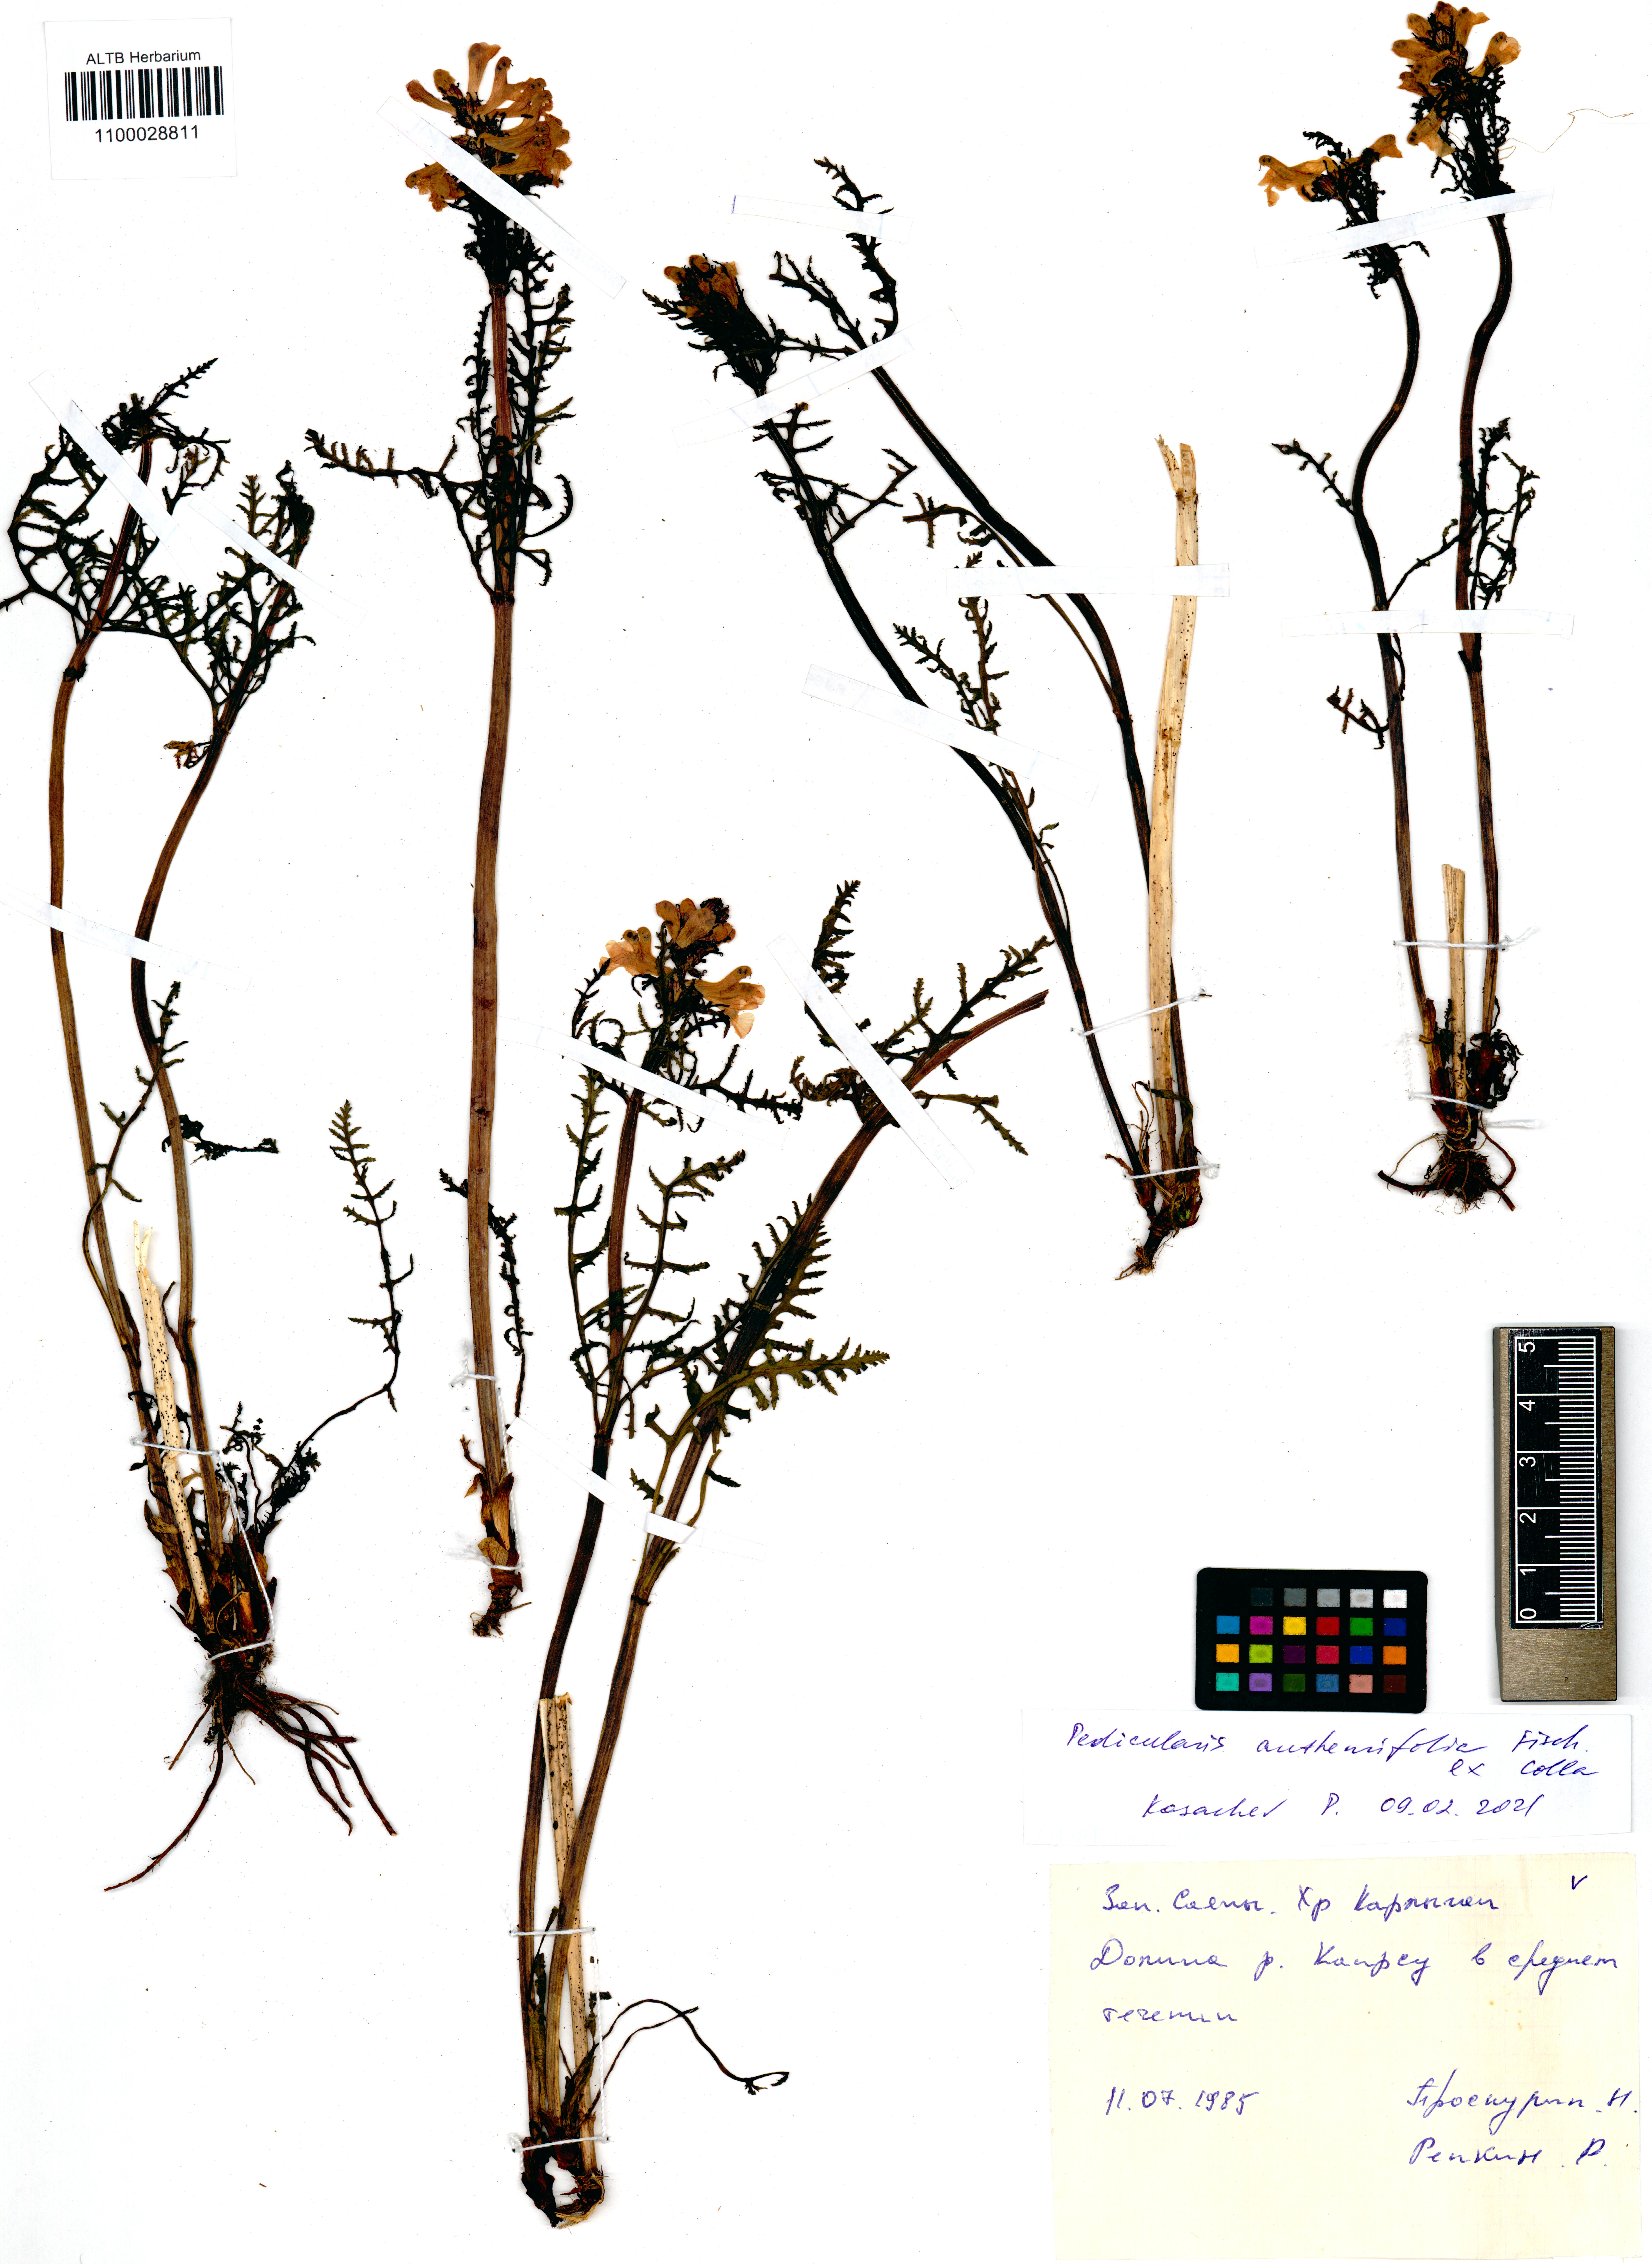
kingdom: Plantae
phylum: Tracheophyta
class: Magnoliopsida
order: Lamiales
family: Orobanchaceae
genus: Pedicularis
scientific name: Pedicularis anthemifolia
